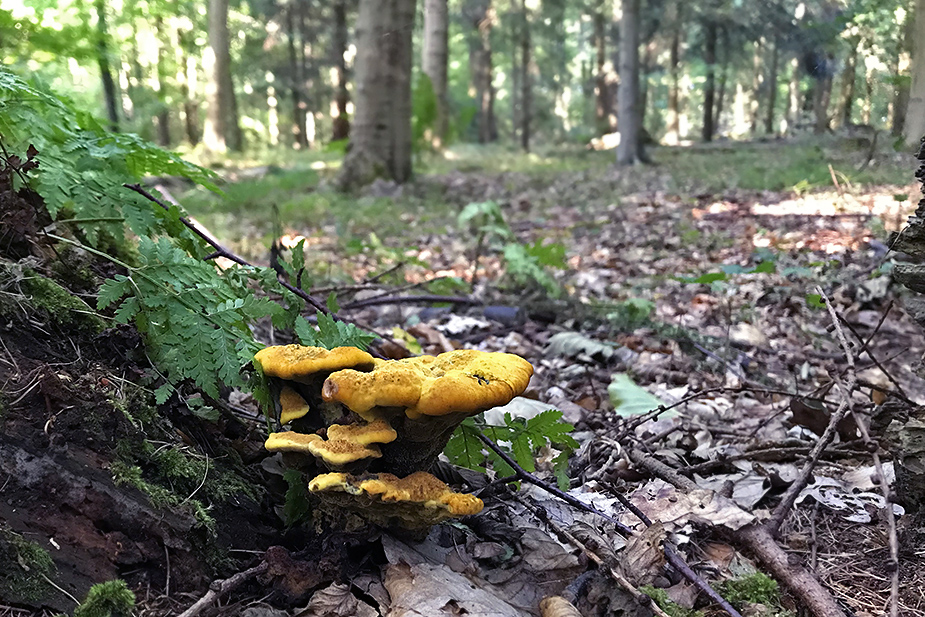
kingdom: Fungi
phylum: Basidiomycota
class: Agaricomycetes
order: Polyporales
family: Laetiporaceae
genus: Phaeolus
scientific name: Phaeolus schweinitzii
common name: brunporesvamp
